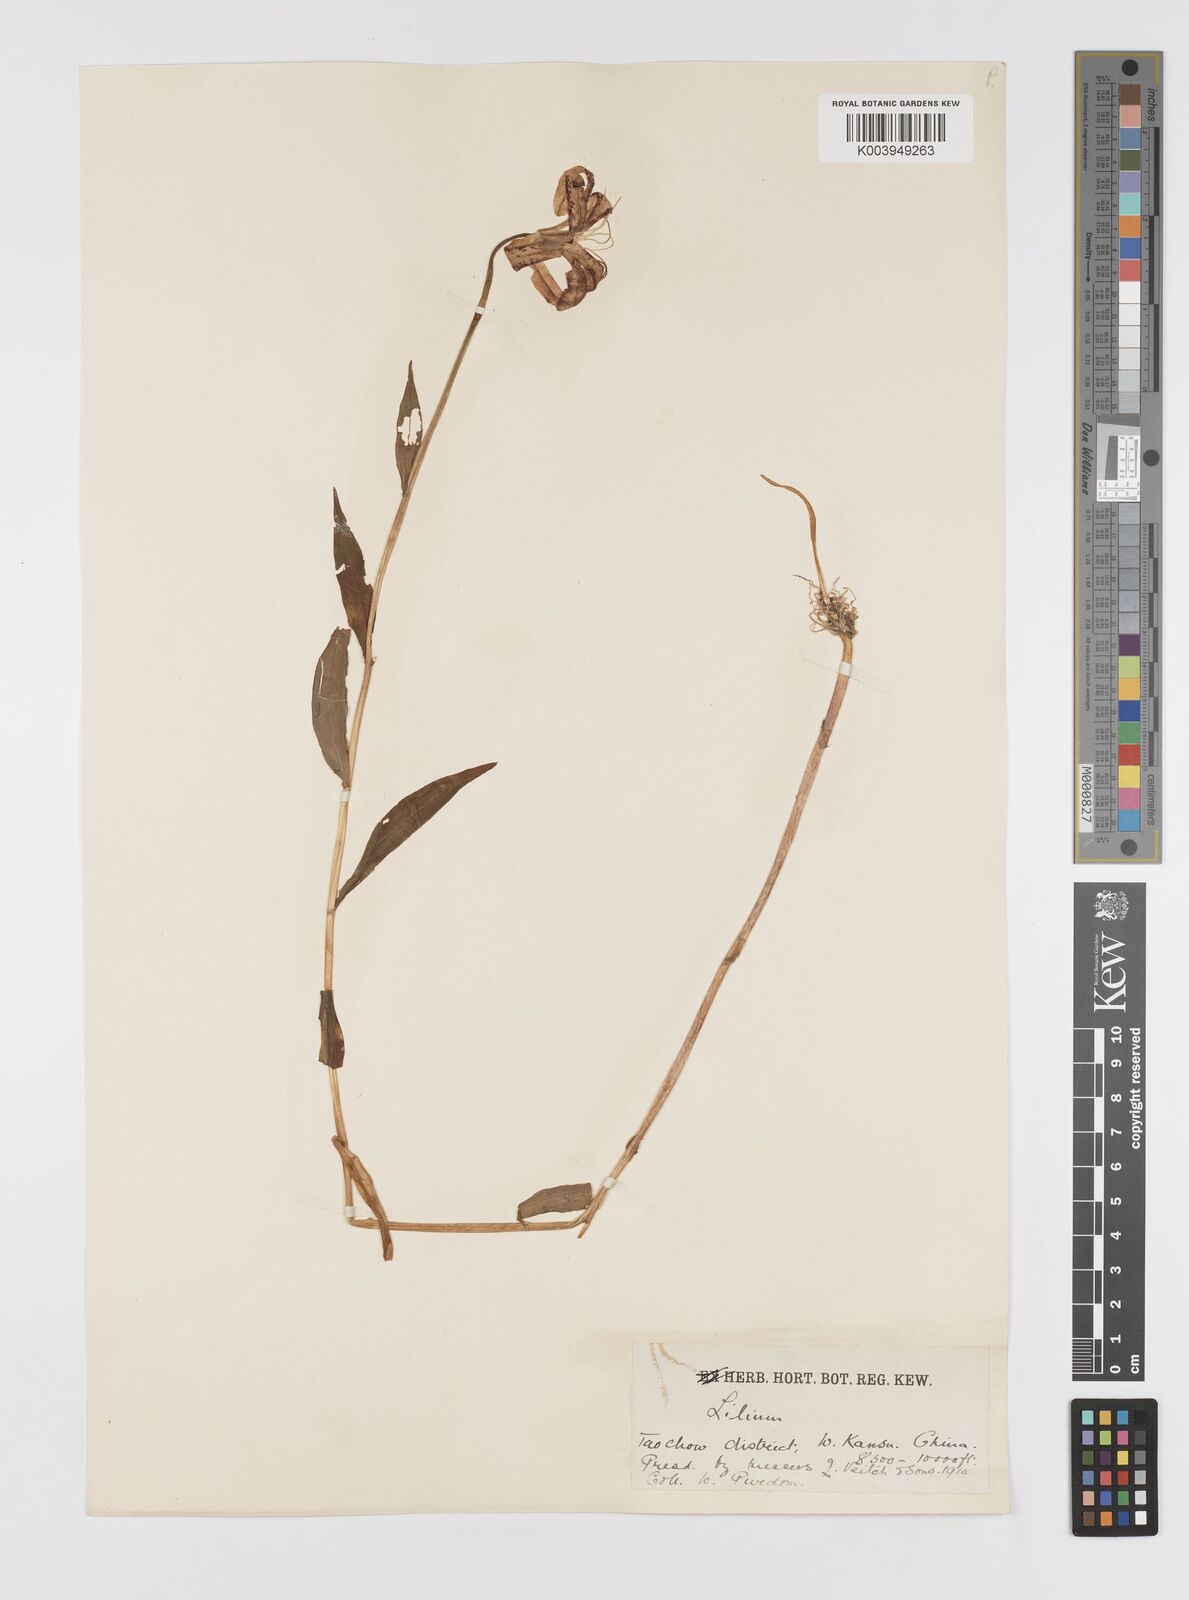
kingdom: Plantae
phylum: Tracheophyta
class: Liliopsida
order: Liliales
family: Liliaceae
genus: Lilium
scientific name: Lilium duchartrei
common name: Duchartre lily
